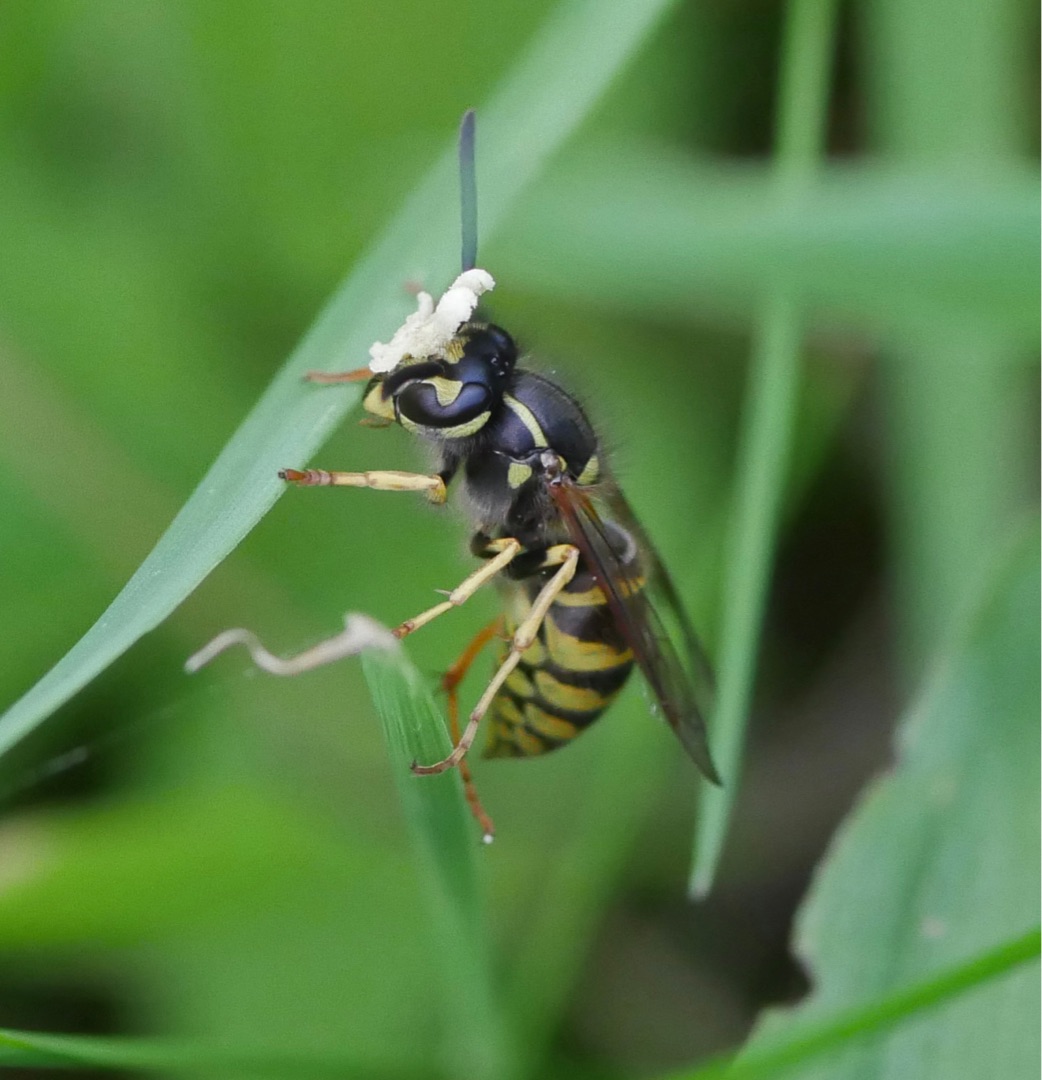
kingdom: Plantae
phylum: Tracheophyta
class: Liliopsida
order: Asparagales
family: Orchidaceae
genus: Epipactis
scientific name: Epipactis helleborine
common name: Skov-hullæbe
